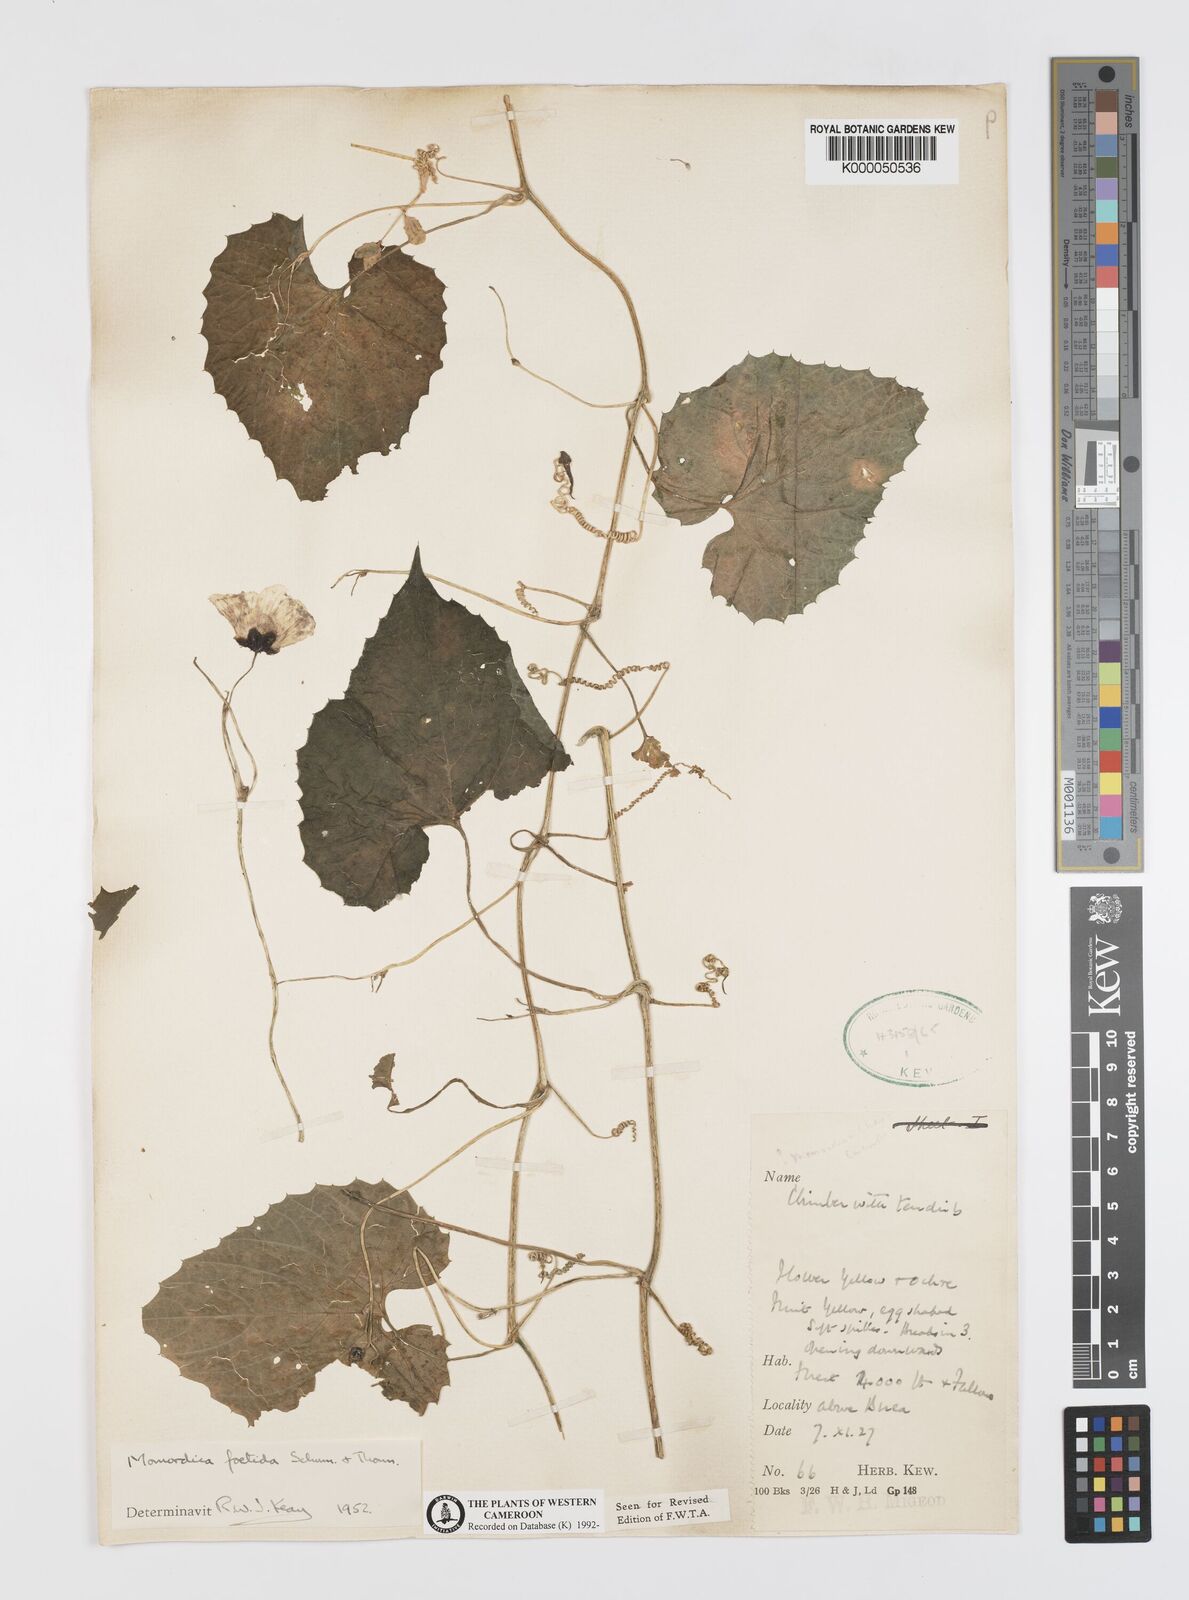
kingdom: Plantae
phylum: Tracheophyta
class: Magnoliopsida
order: Cucurbitales
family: Cucurbitaceae
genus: Momordica
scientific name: Momordica foetida
